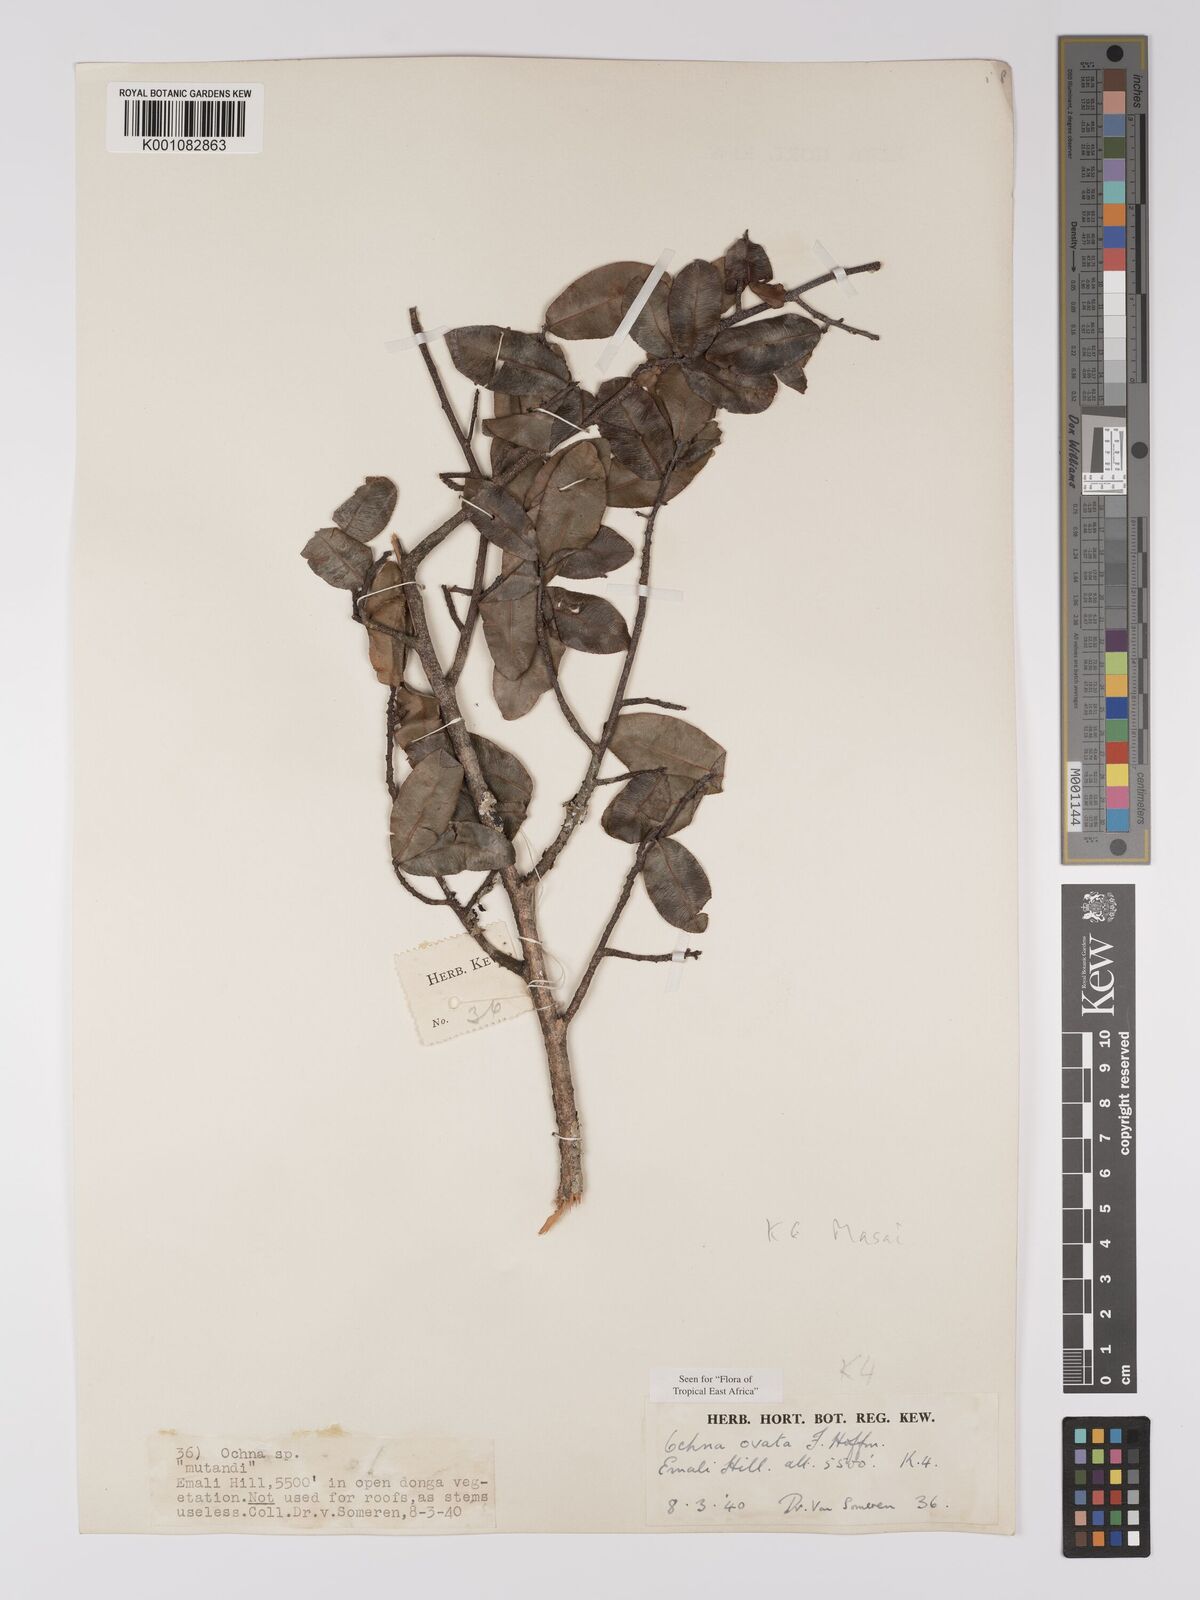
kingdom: Plantae
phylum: Tracheophyta
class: Magnoliopsida
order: Malpighiales
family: Ochnaceae
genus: Ochna
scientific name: Ochna ovata
